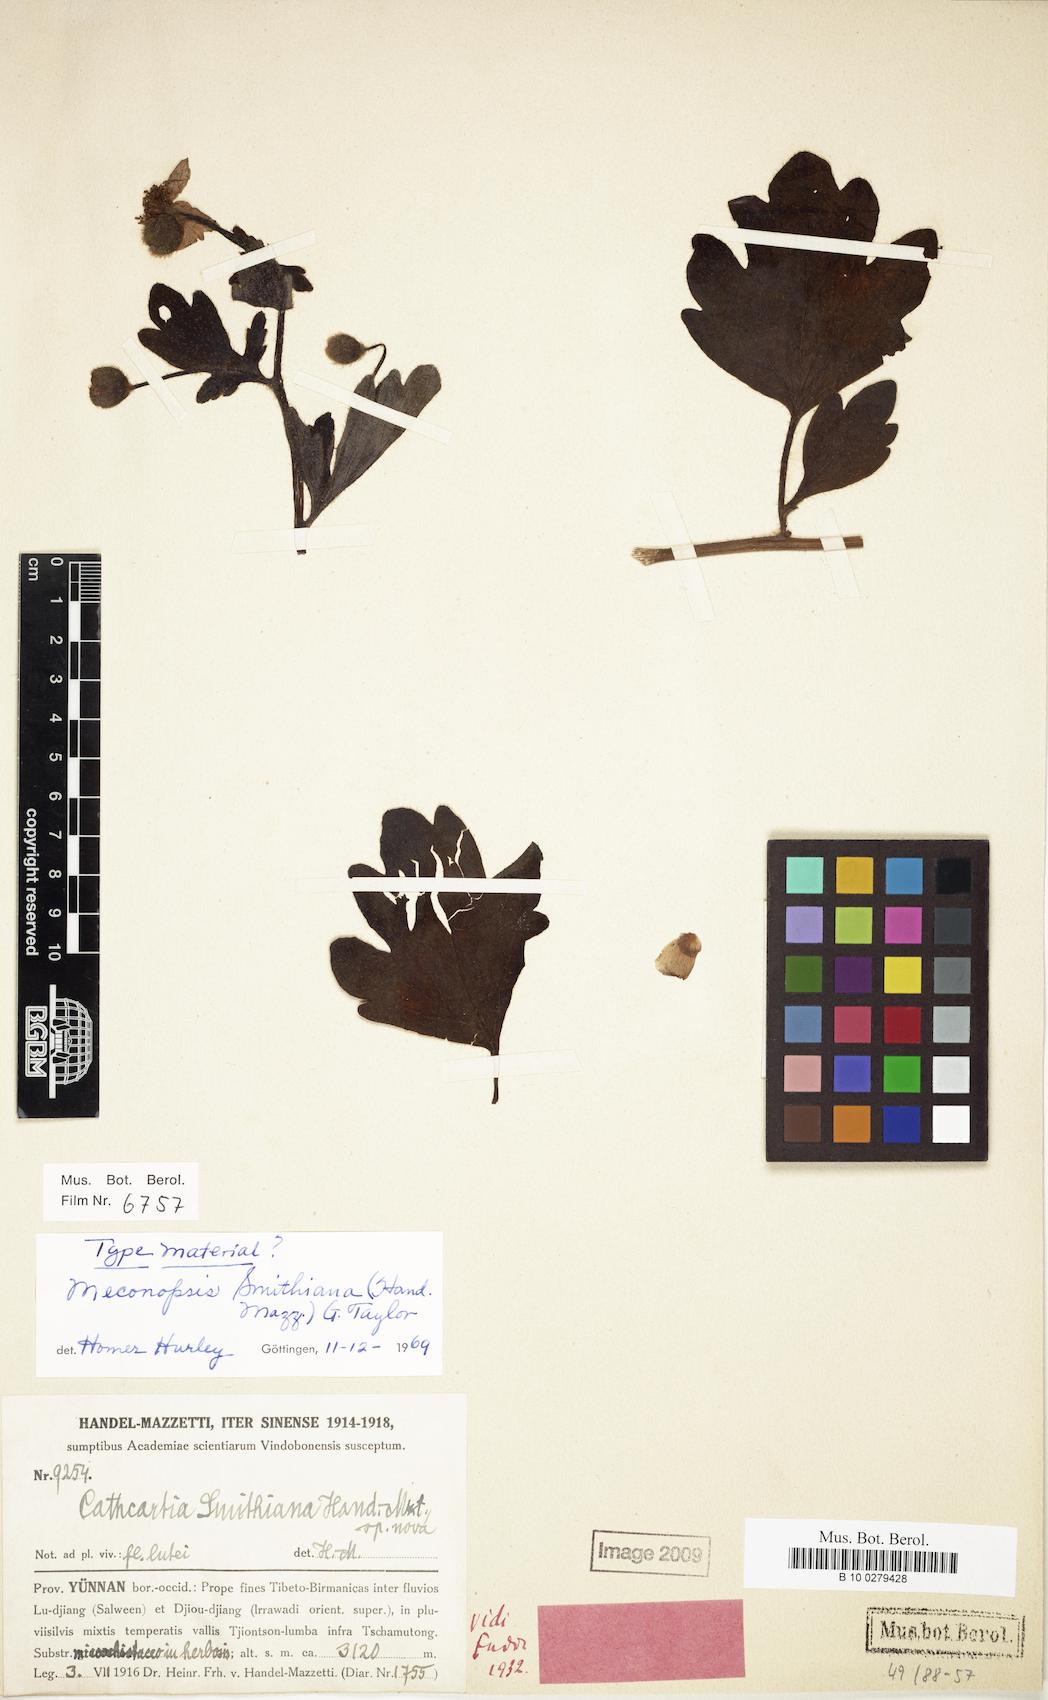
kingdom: Plantae
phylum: Tracheophyta
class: Magnoliopsida
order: Ranunculales
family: Papaveraceae
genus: Cathcartia
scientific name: Cathcartia smithiana
